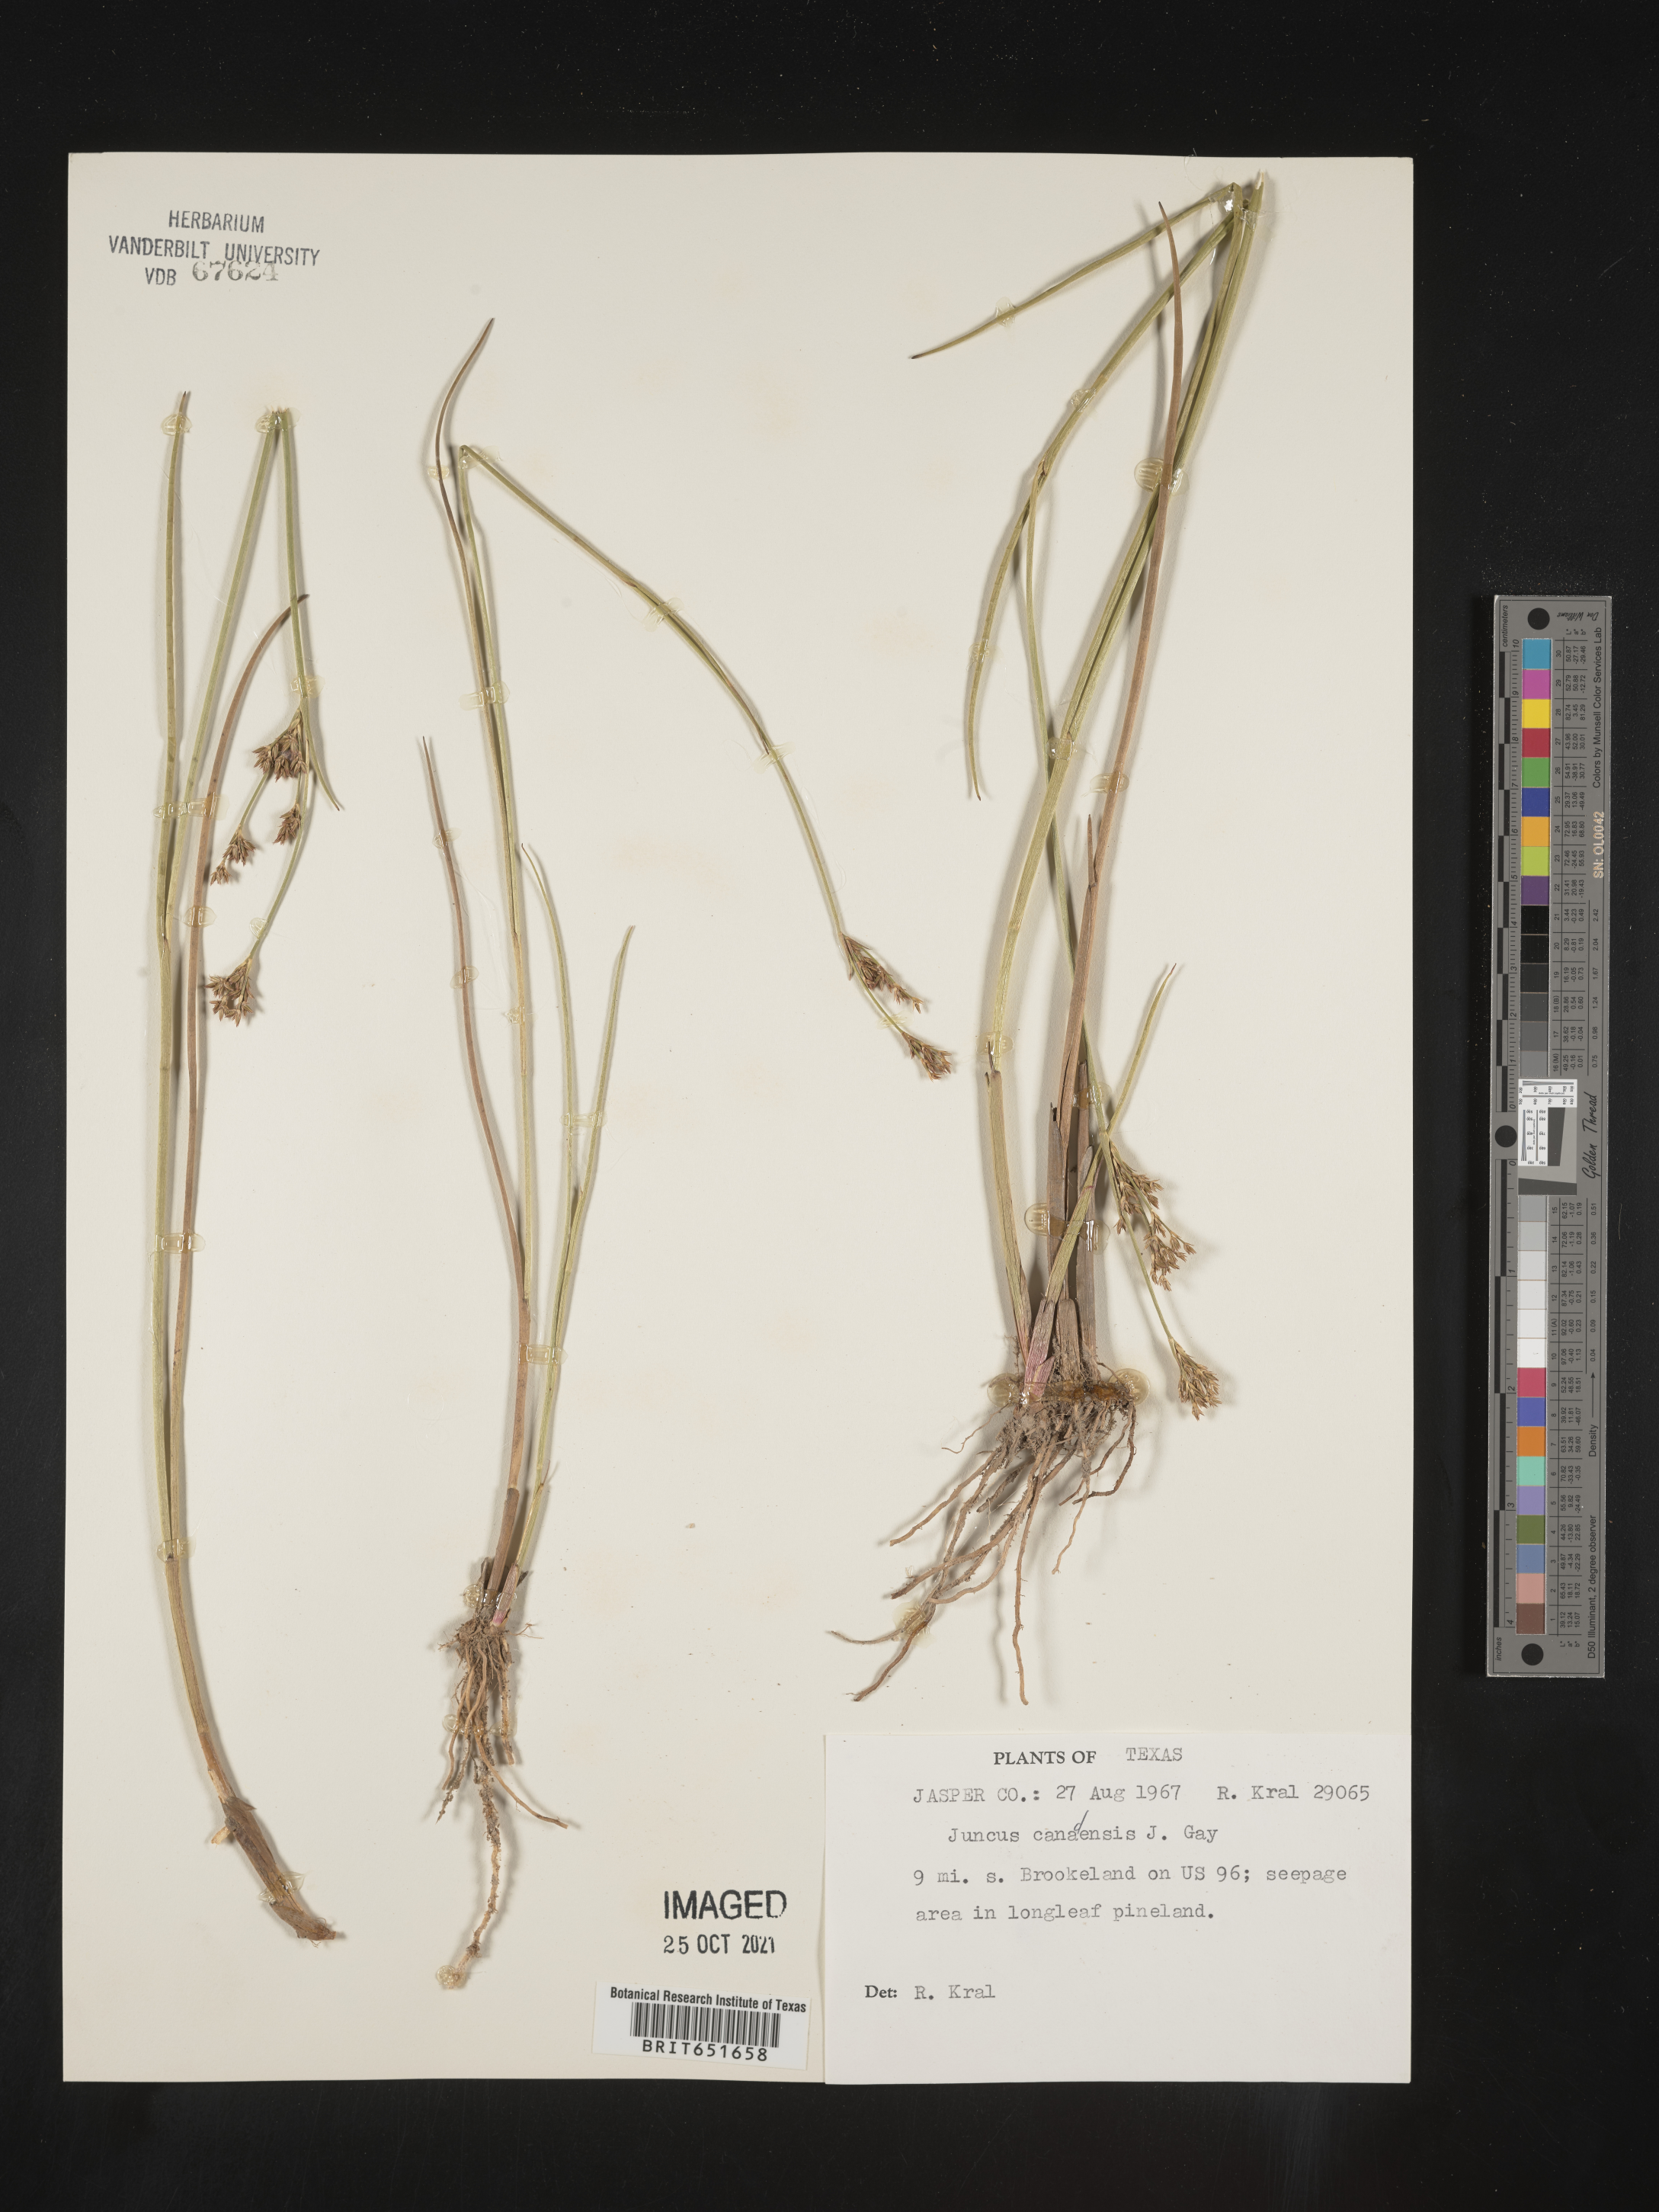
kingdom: Plantae
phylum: Tracheophyta
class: Liliopsida
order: Poales
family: Juncaceae
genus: Juncus
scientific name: Juncus canadensis
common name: Canada rush
